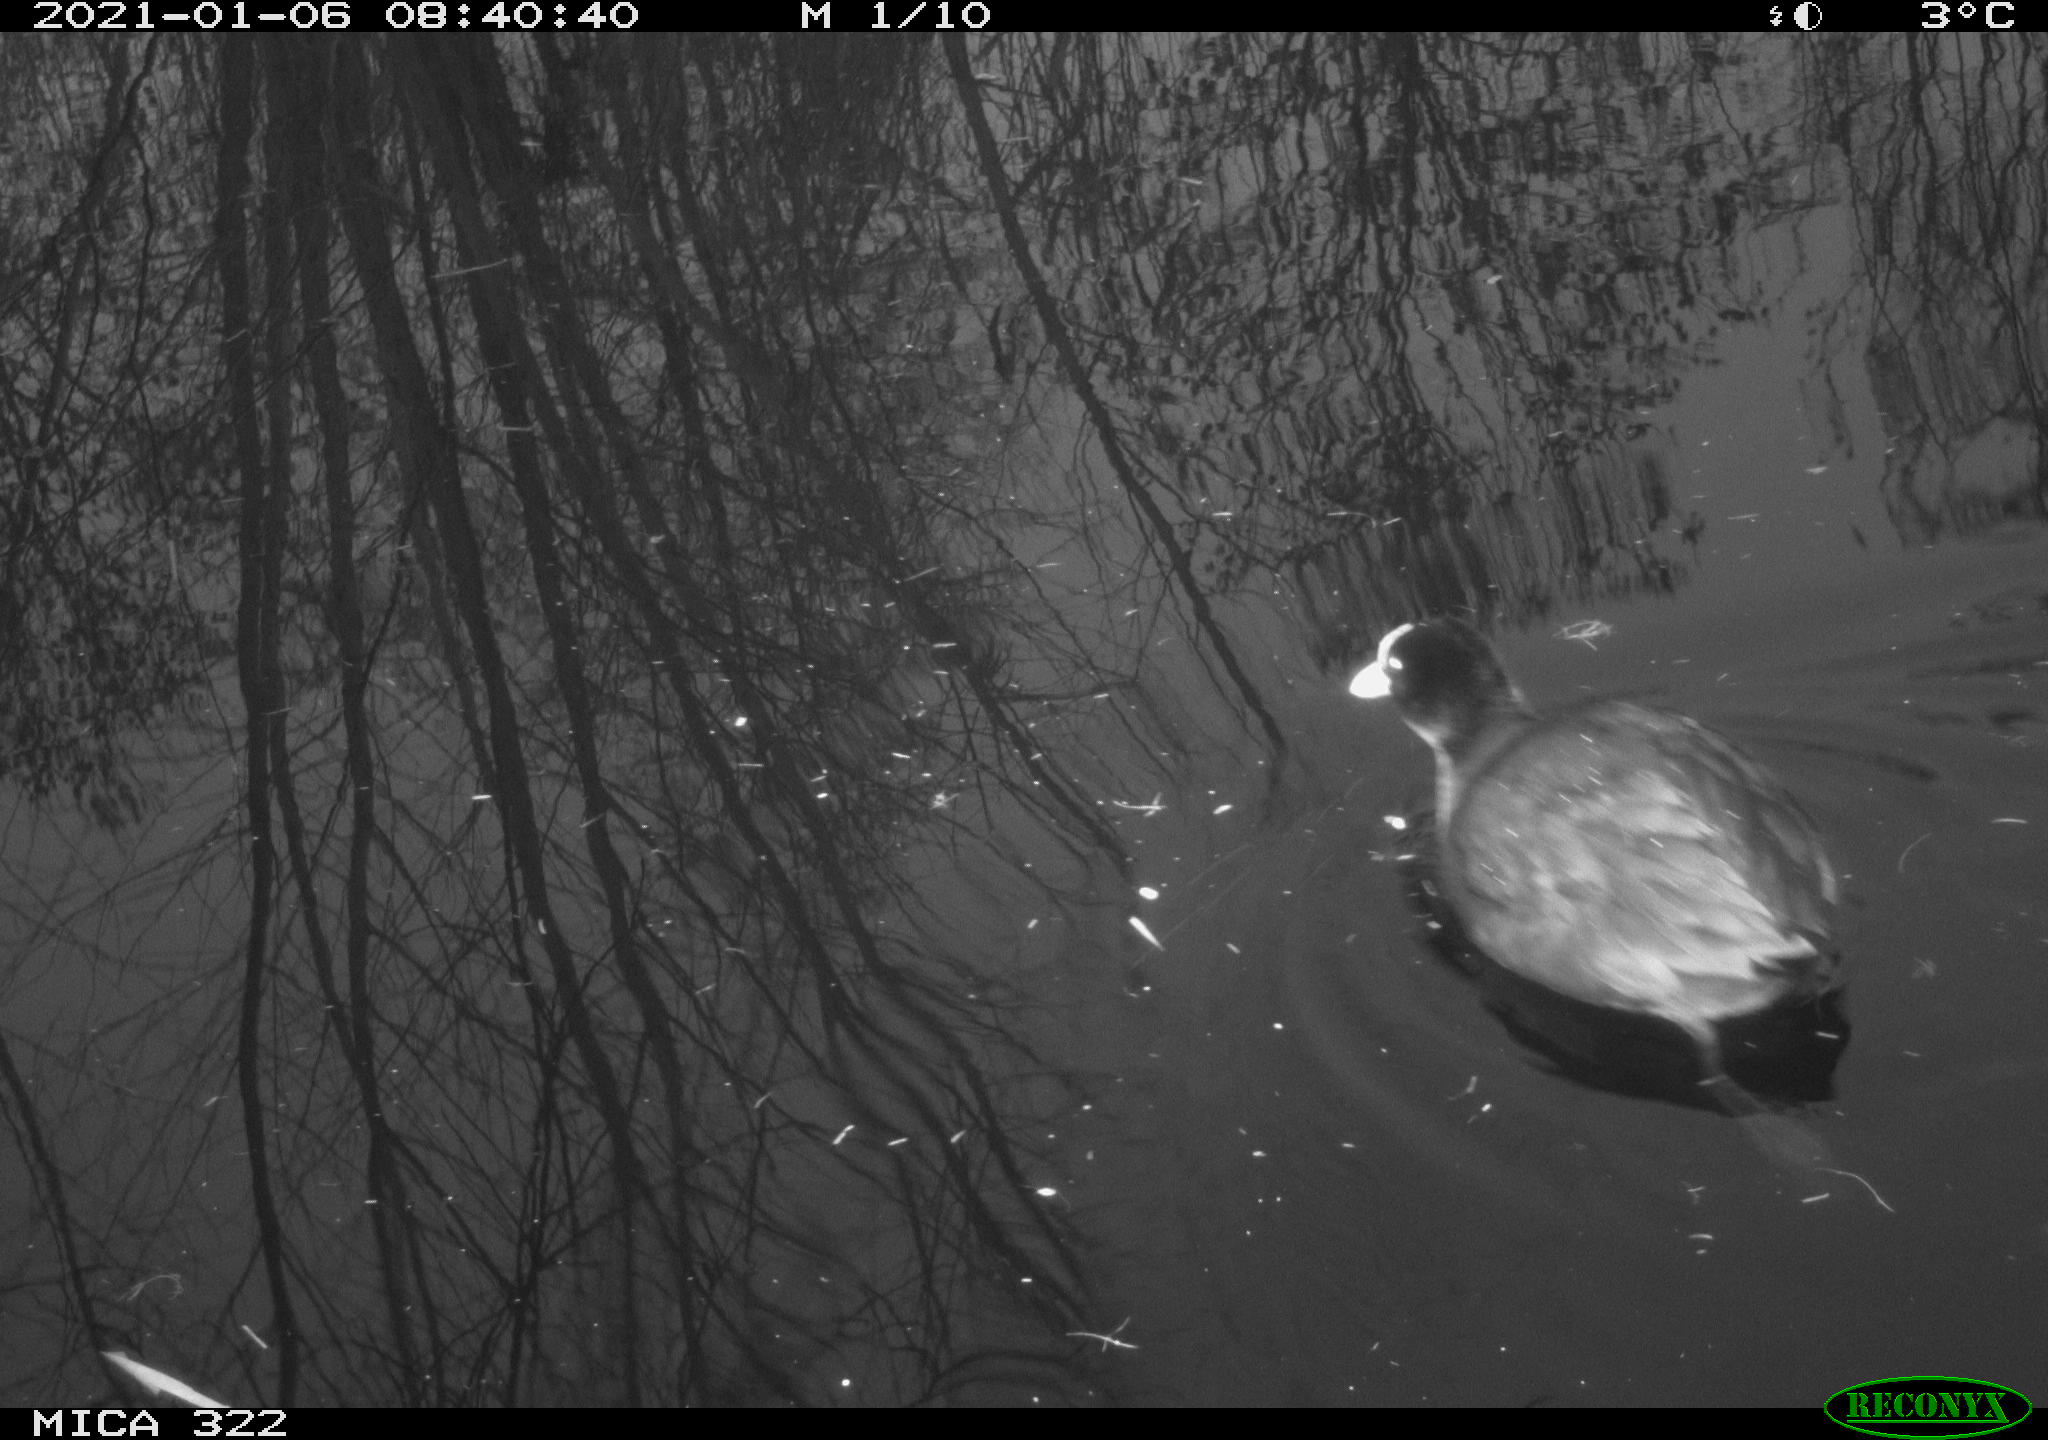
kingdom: Animalia
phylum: Chordata
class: Aves
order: Gruiformes
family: Rallidae
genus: Fulica
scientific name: Fulica atra
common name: Eurasian coot
